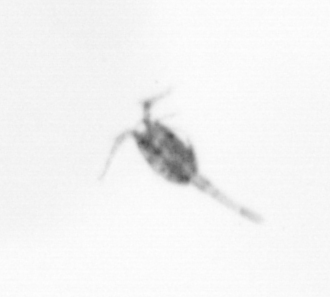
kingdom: Animalia
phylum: Arthropoda
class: Copepoda
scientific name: Copepoda
